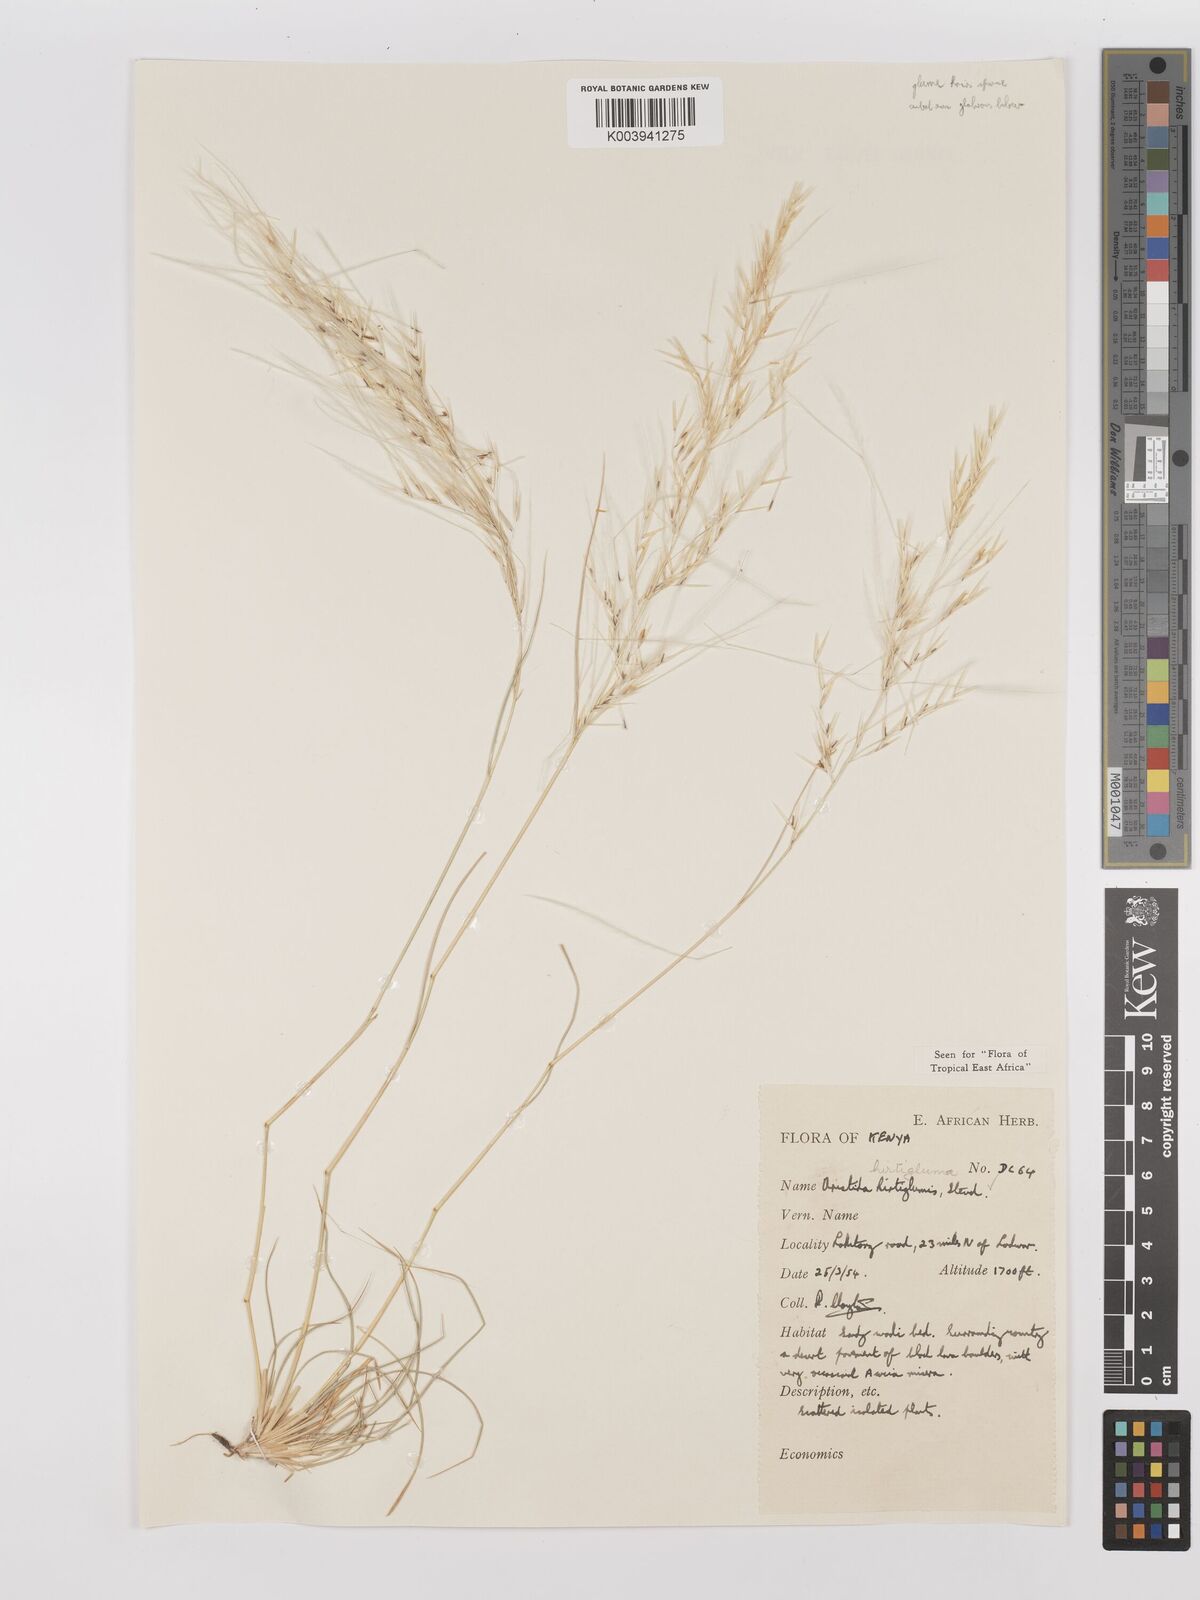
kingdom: Plantae
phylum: Tracheophyta
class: Liliopsida
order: Poales
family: Poaceae
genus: Stipagrostis
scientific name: Stipagrostis hirtigluma
